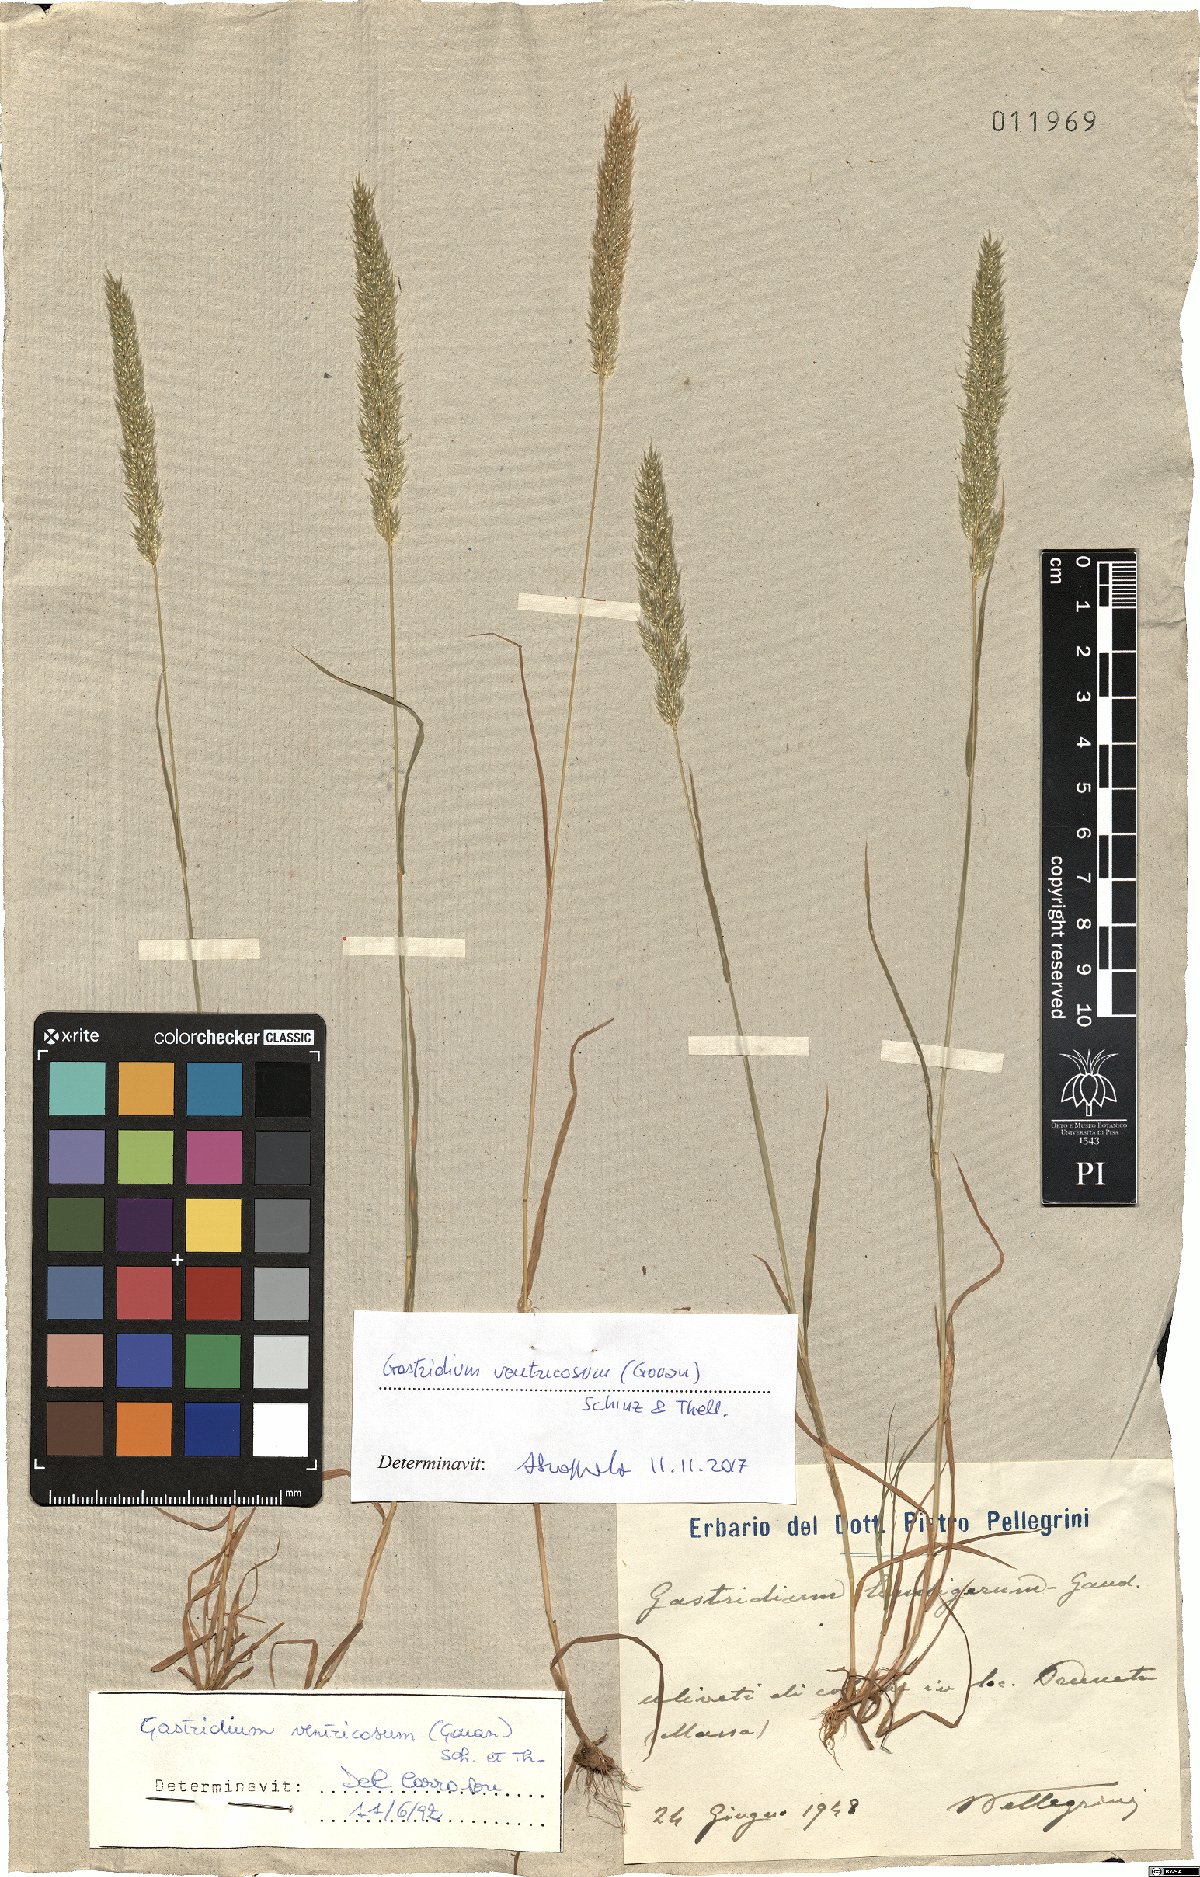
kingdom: Plantae
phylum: Tracheophyta
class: Liliopsida
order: Poales
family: Poaceae
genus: Gastridium
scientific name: Gastridium ventricosum
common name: Nit-grass
